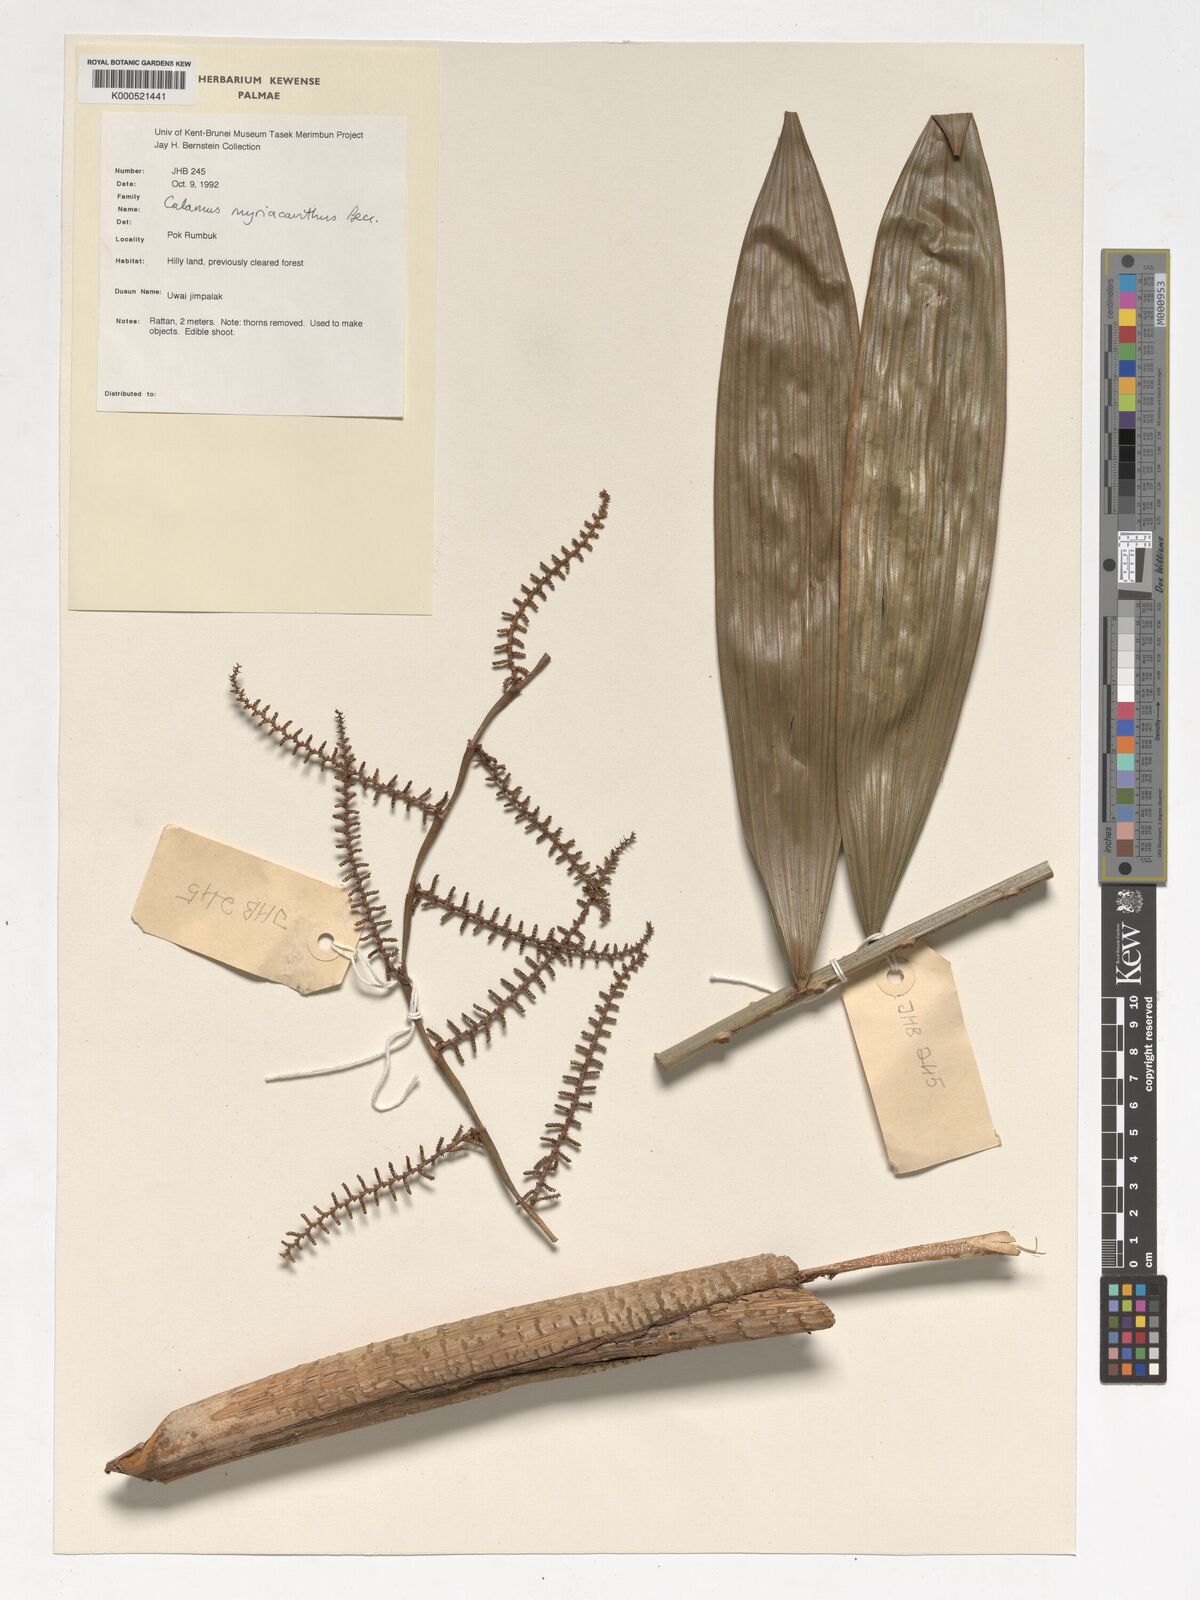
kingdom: Plantae
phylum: Tracheophyta
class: Liliopsida
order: Arecales
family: Arecaceae
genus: Calamus
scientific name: Calamus myriacanthus
